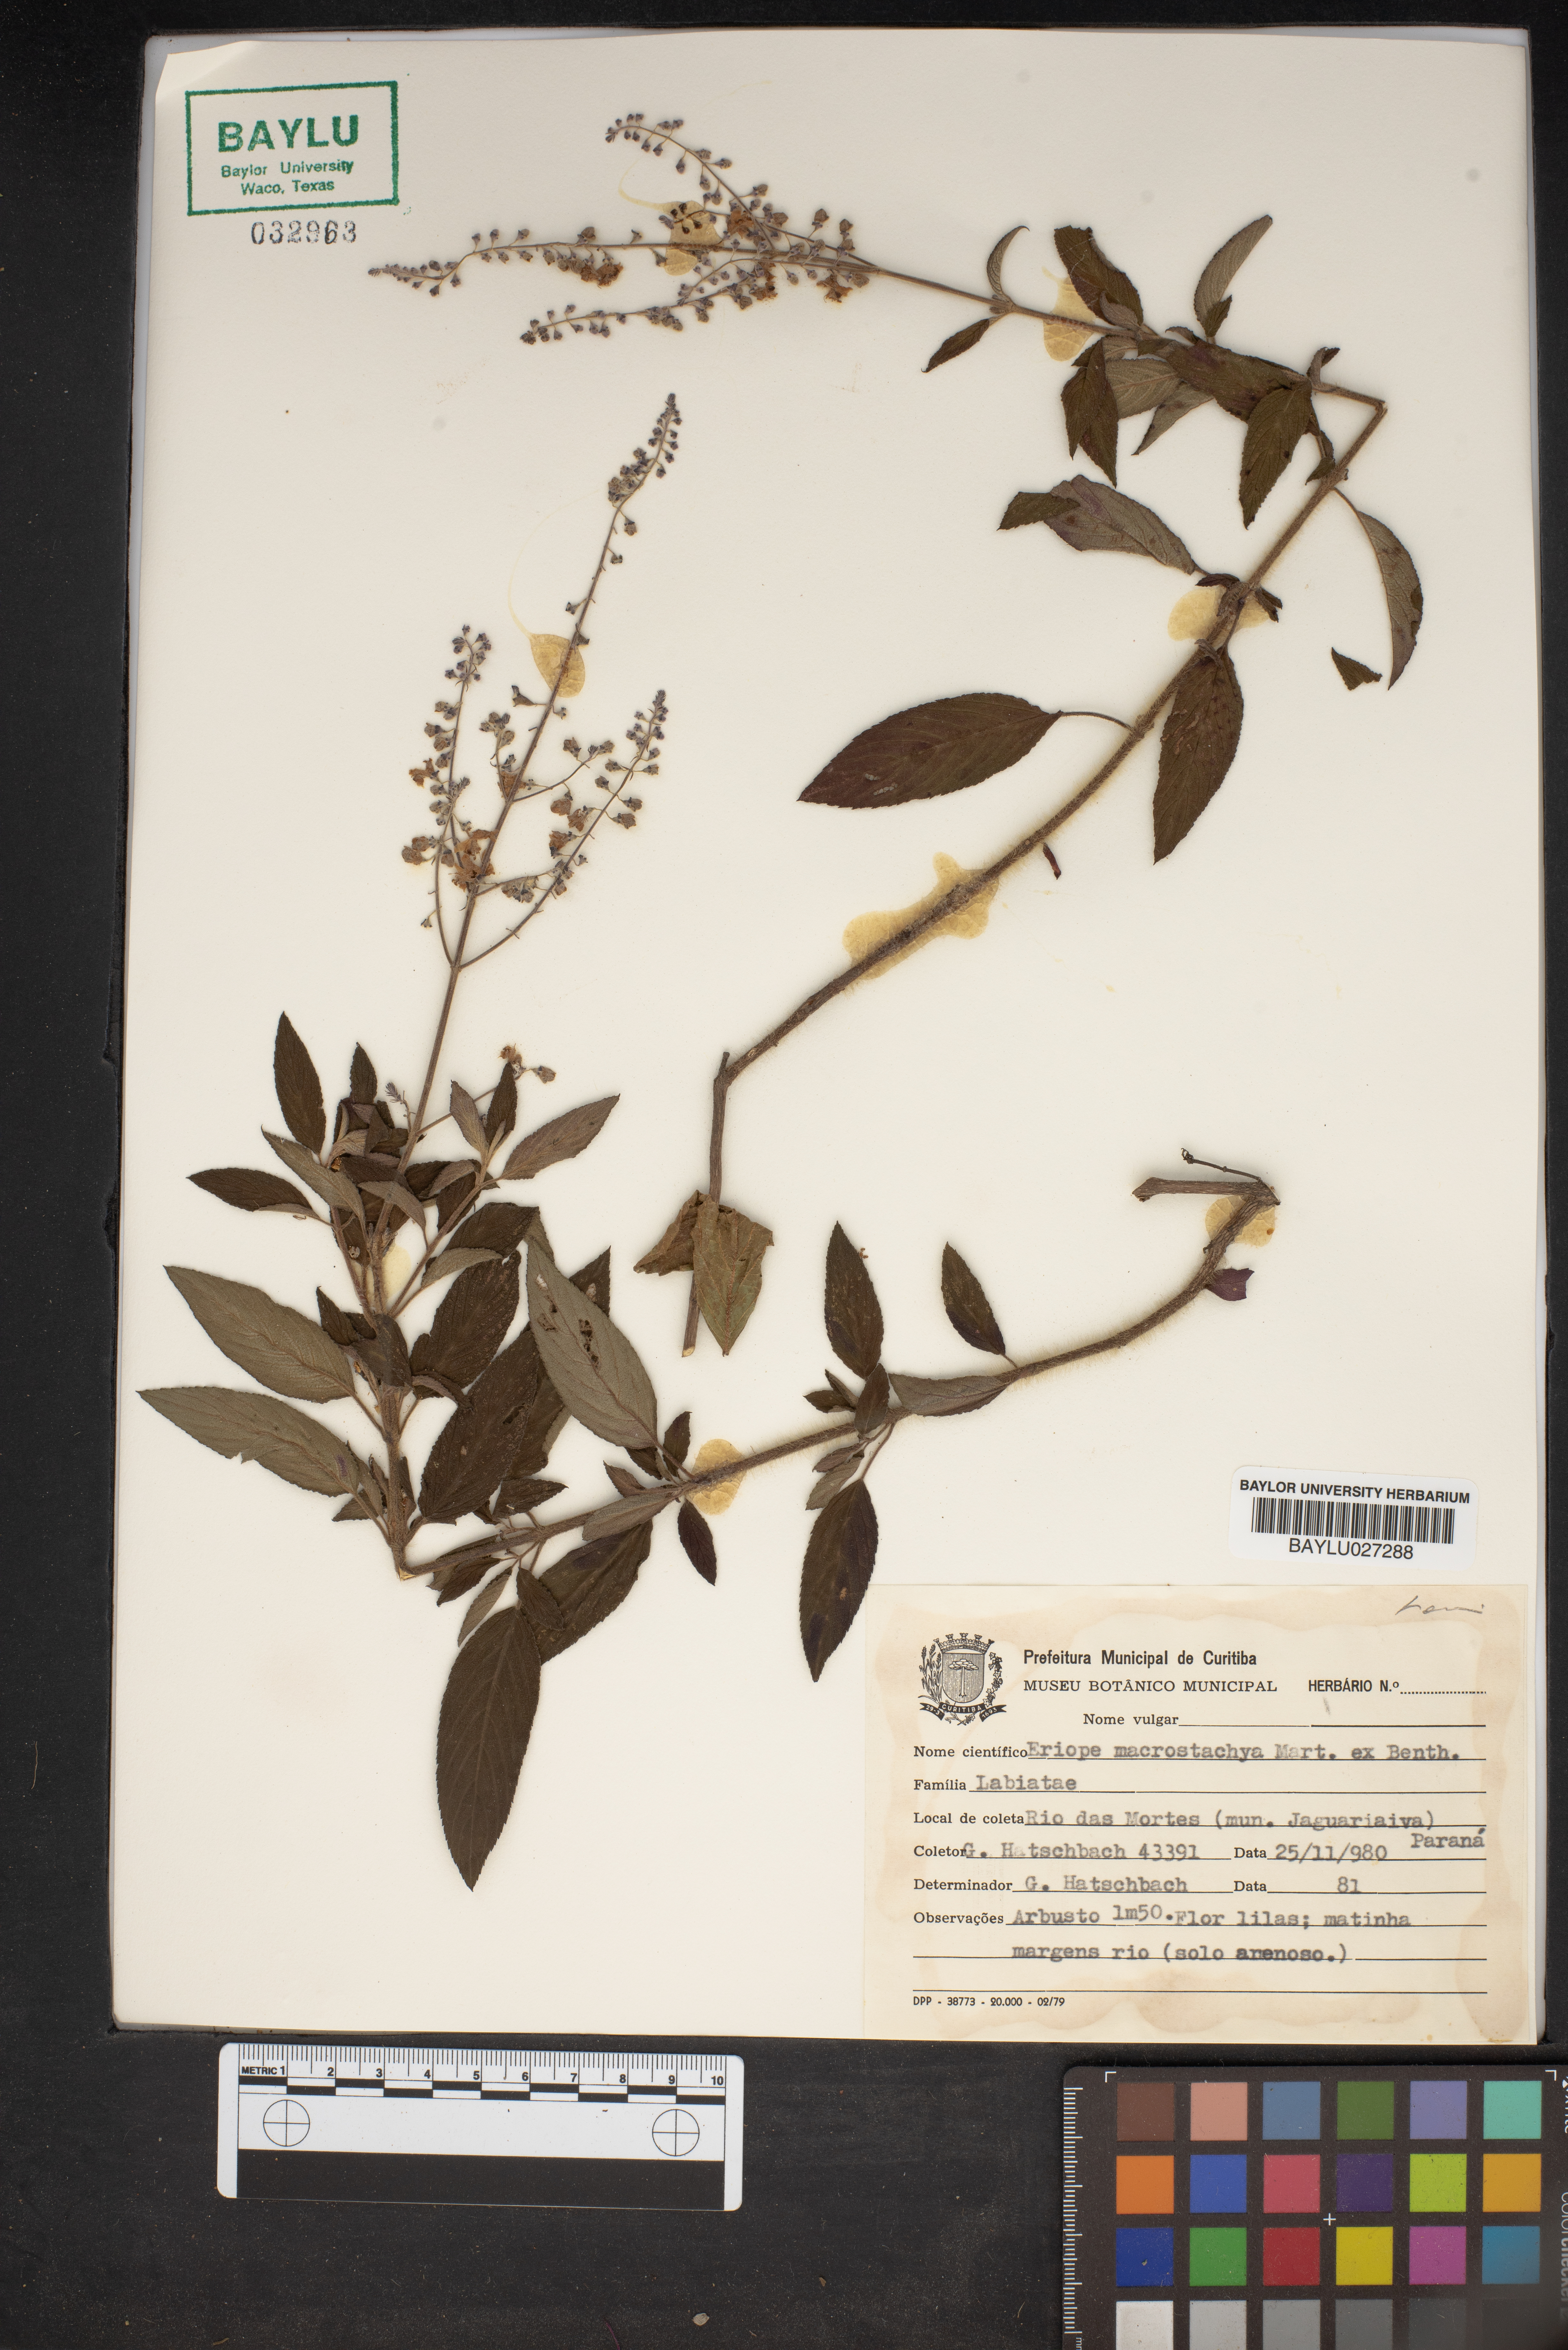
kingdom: Plantae
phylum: Tracheophyta
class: Magnoliopsida
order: Lamiales
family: Lamiaceae
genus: Eriope
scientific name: Eriope macrostachya
